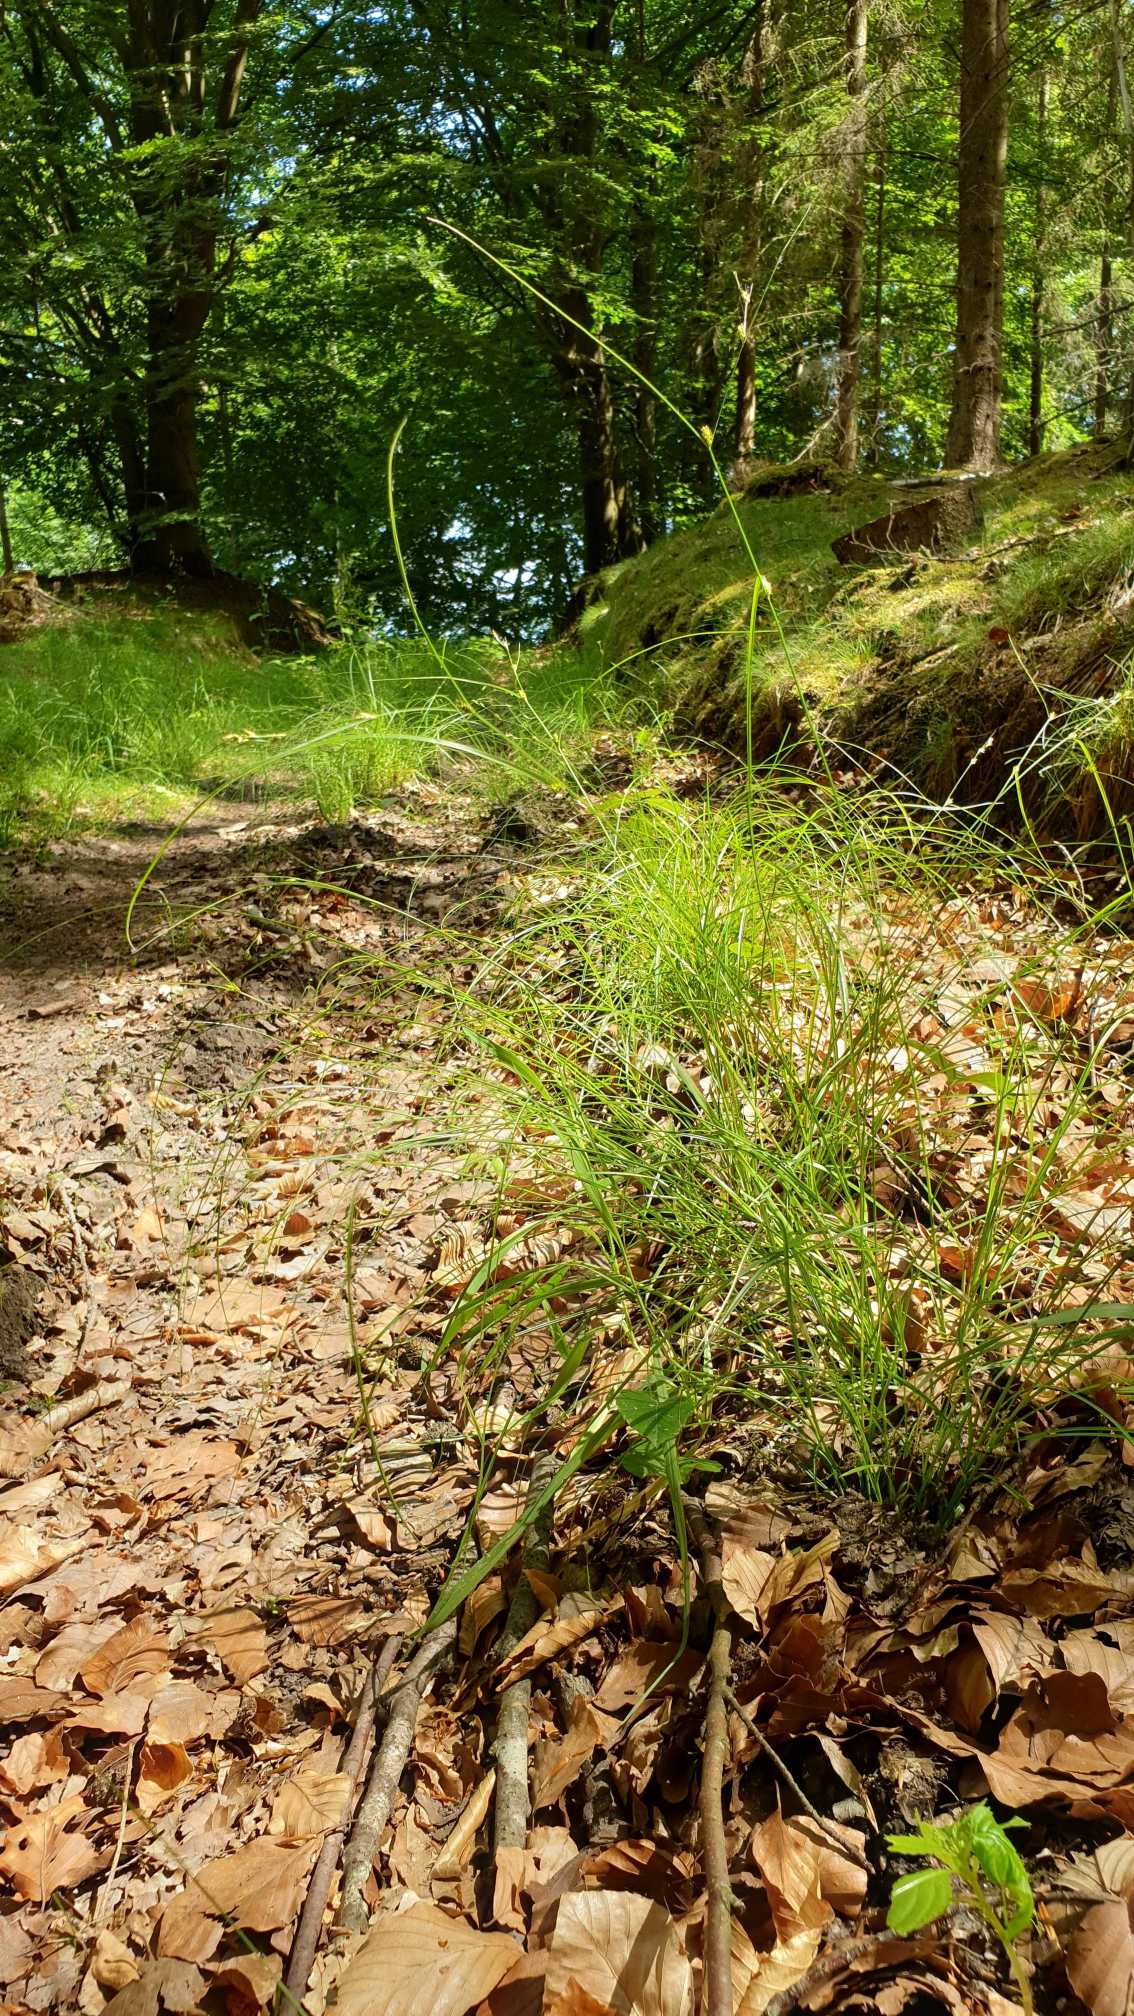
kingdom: Plantae
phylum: Tracheophyta
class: Liliopsida
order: Poales
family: Cyperaceae
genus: Carex
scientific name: Carex remota
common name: Akselblomstret star
